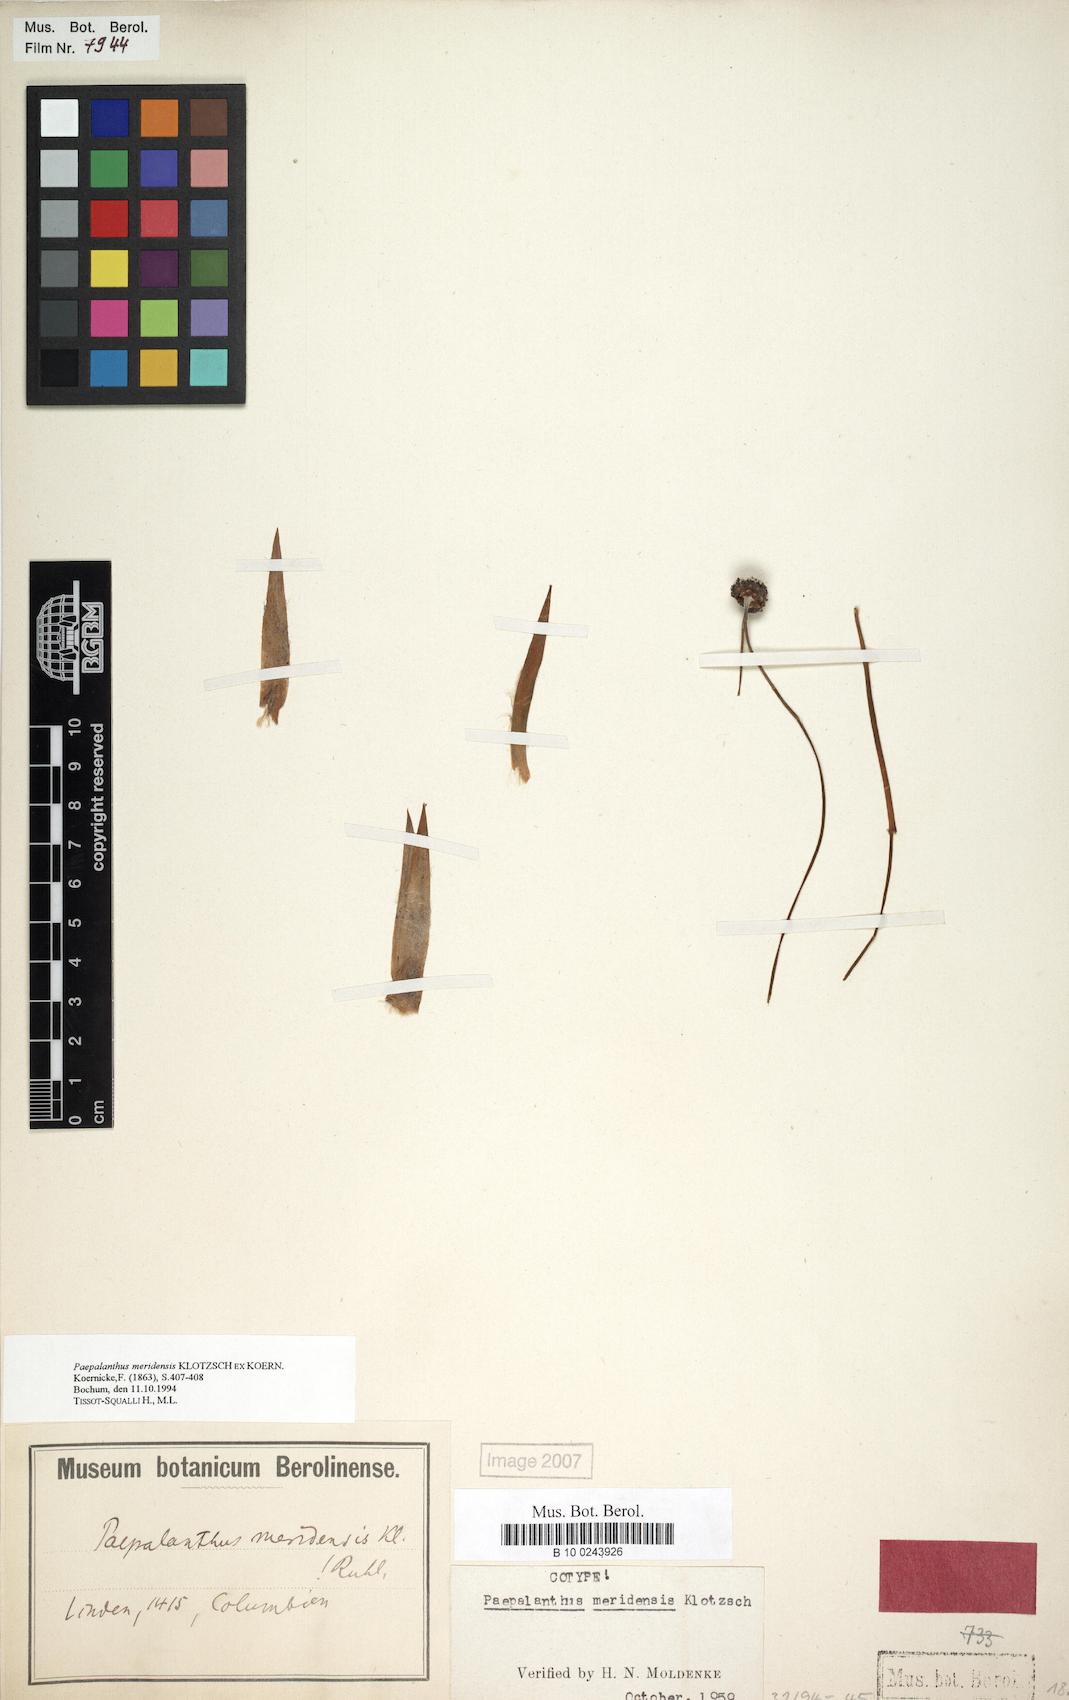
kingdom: Plantae
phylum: Tracheophyta
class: Liliopsida
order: Poales
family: Eriocaulaceae
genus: Paepalanthus
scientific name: Paepalanthus meridensis
